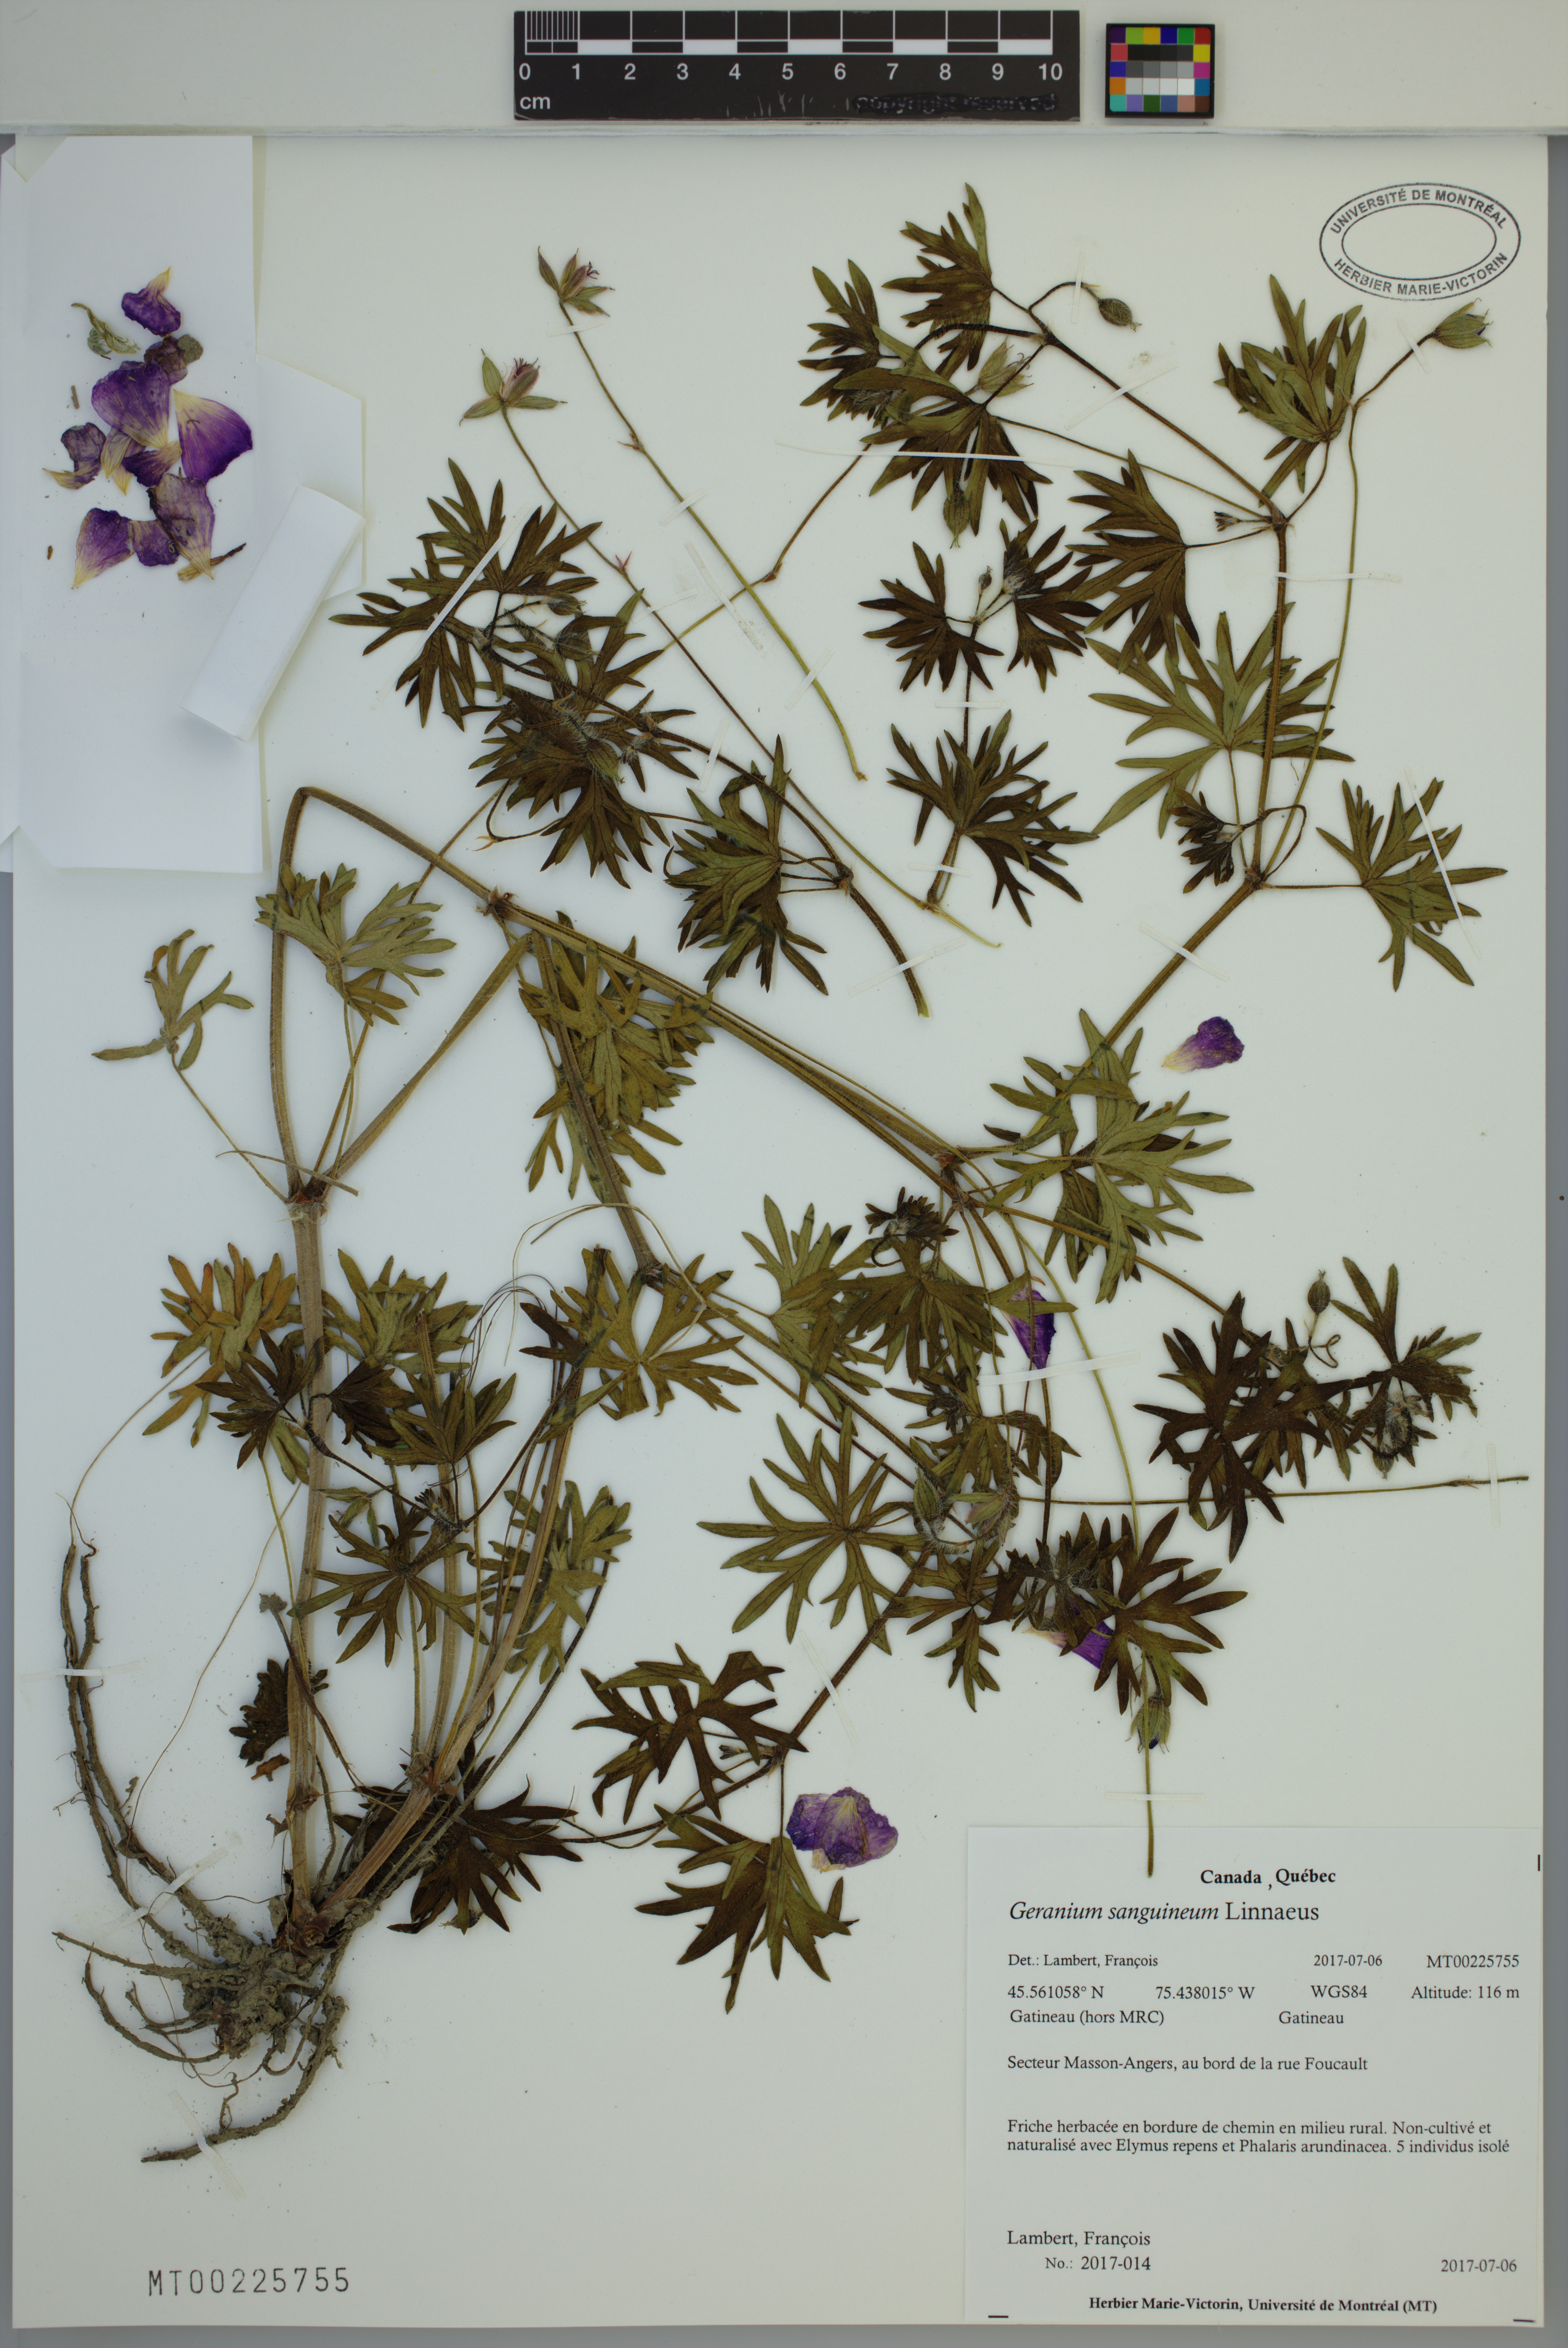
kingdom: Plantae
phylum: Tracheophyta
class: Magnoliopsida
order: Geraniales
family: Geraniaceae
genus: Geranium
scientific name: Geranium sanguineum
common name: Bloody crane's-bill
